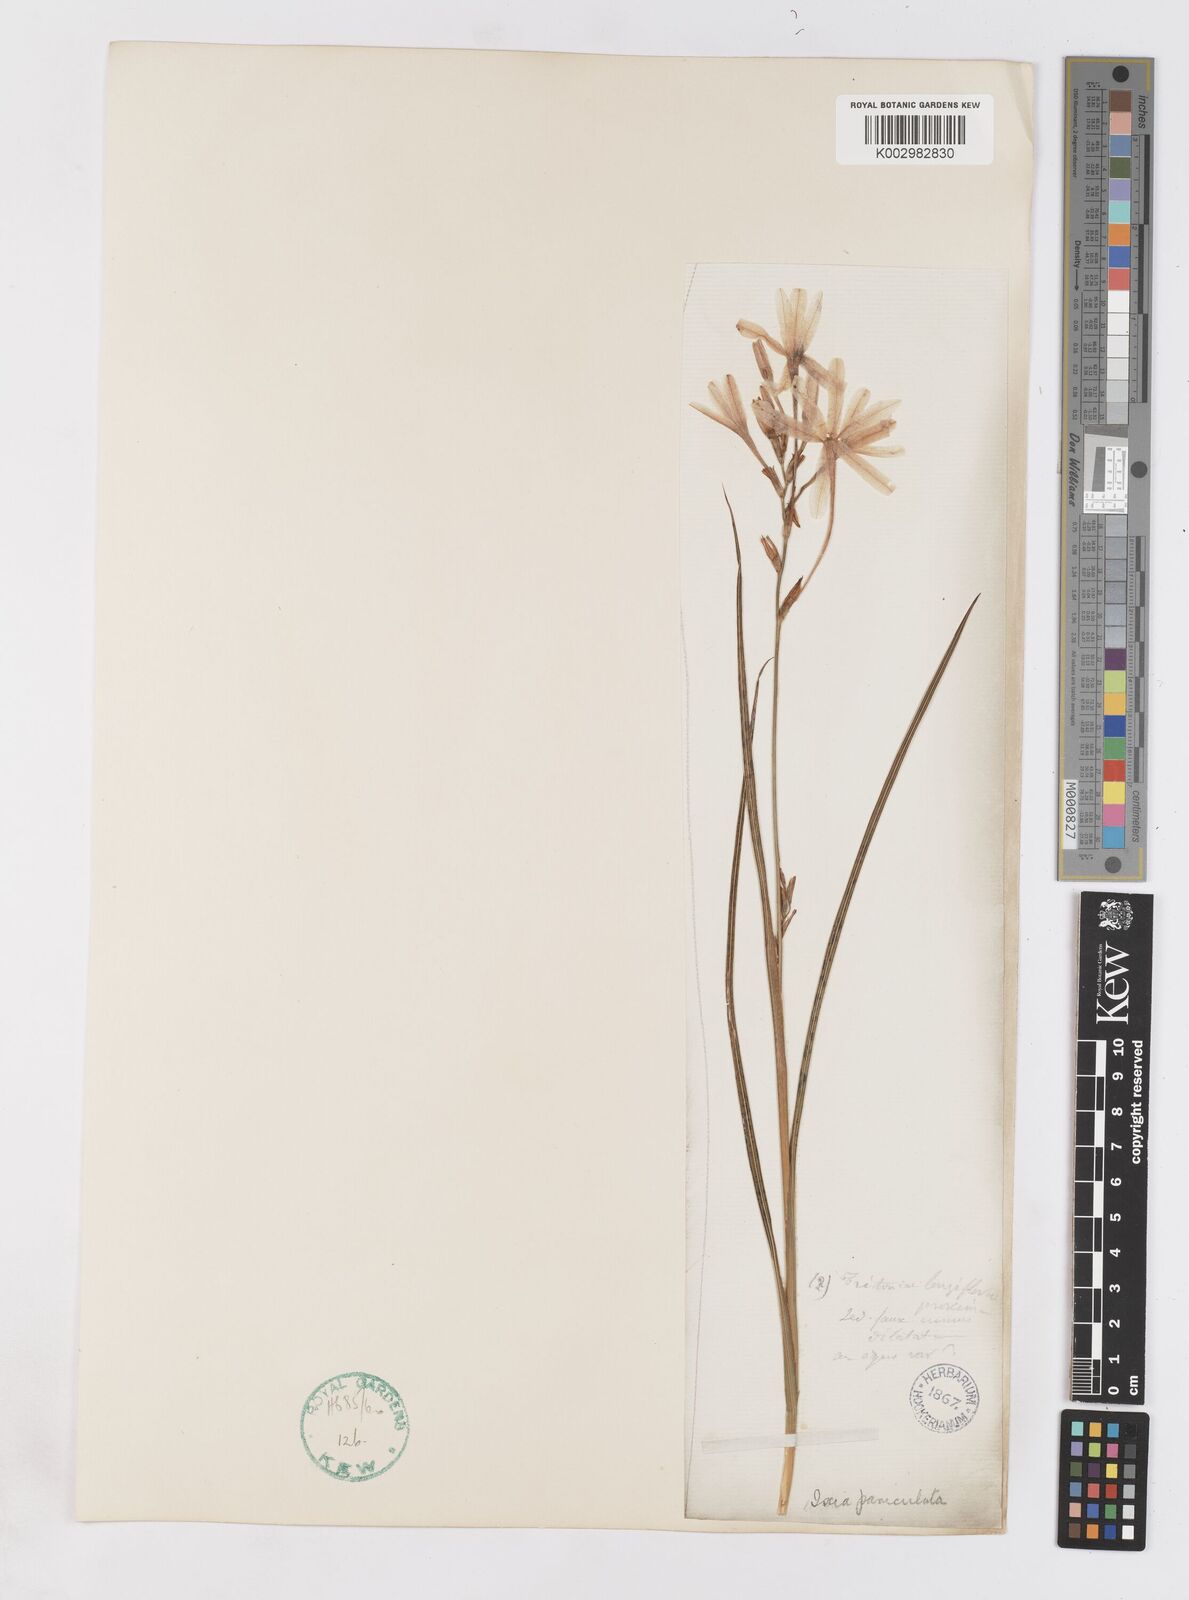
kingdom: Plantae
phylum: Tracheophyta
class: Liliopsida
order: Asparagales
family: Iridaceae
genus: Ixia
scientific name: Ixia paniculata
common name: Tubular corn-lily
